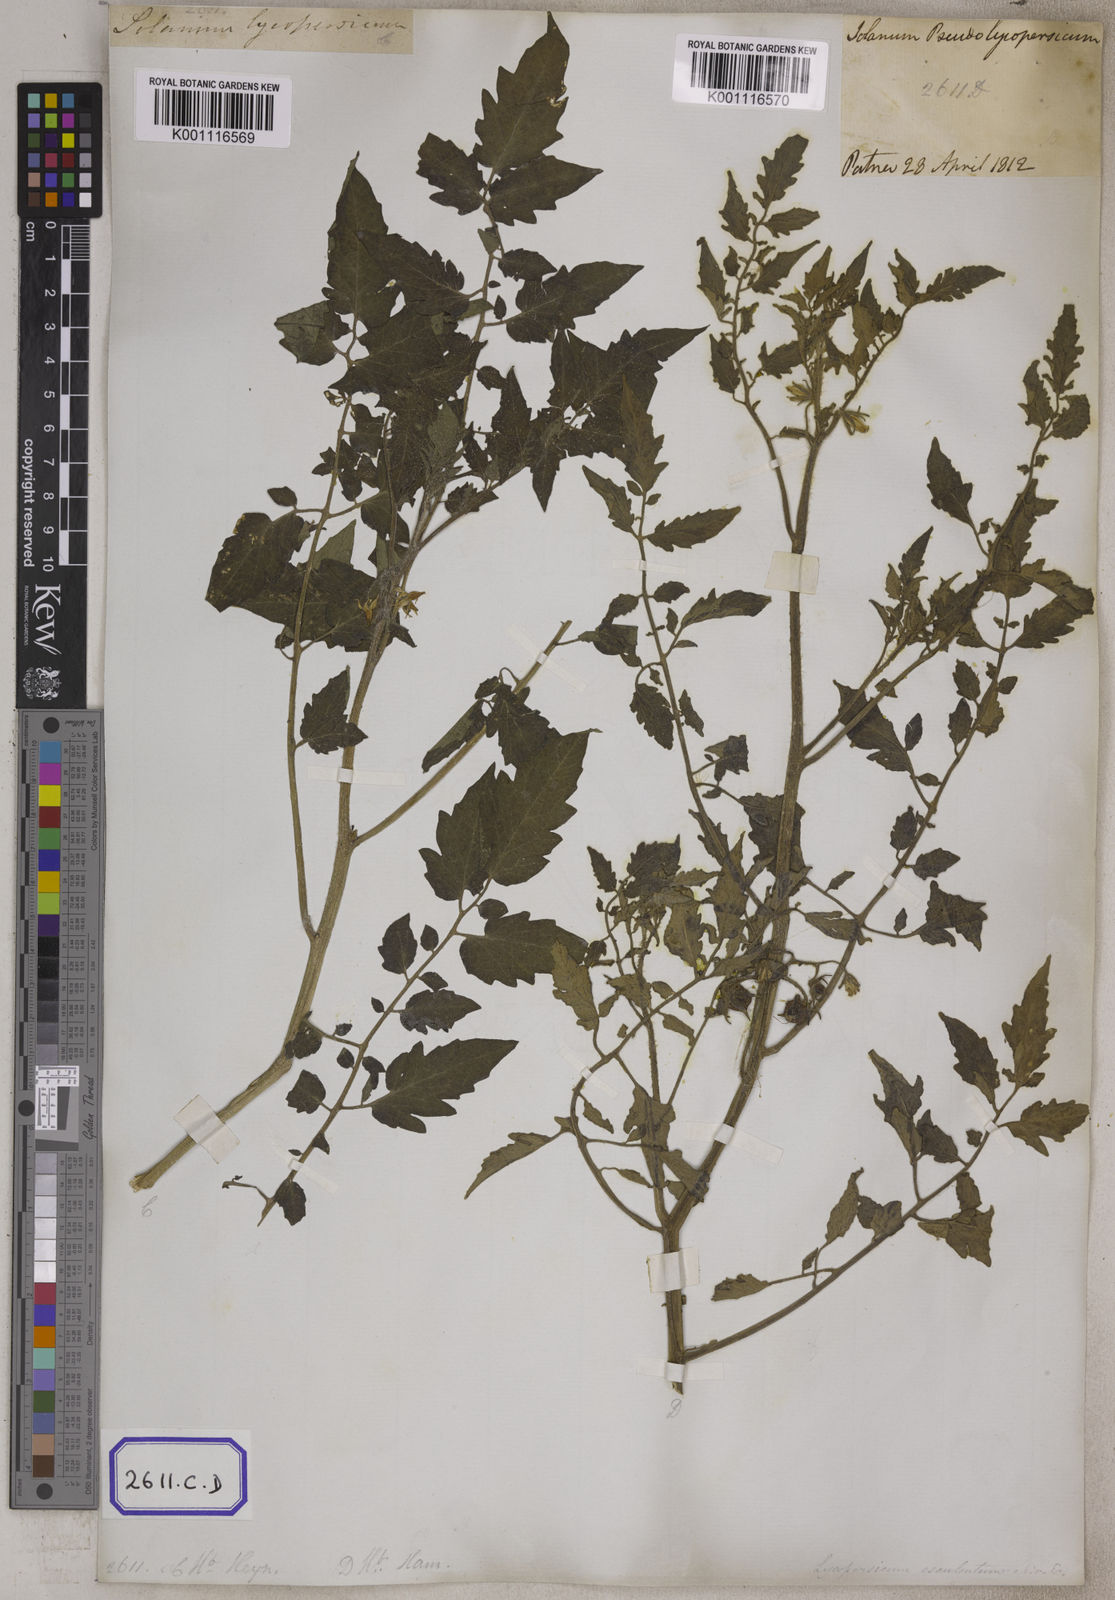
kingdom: Plantae
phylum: Tracheophyta
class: Magnoliopsida
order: Solanales
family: Solanaceae
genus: Solanum
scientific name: Solanum lycopersicum
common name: Garden tomato
